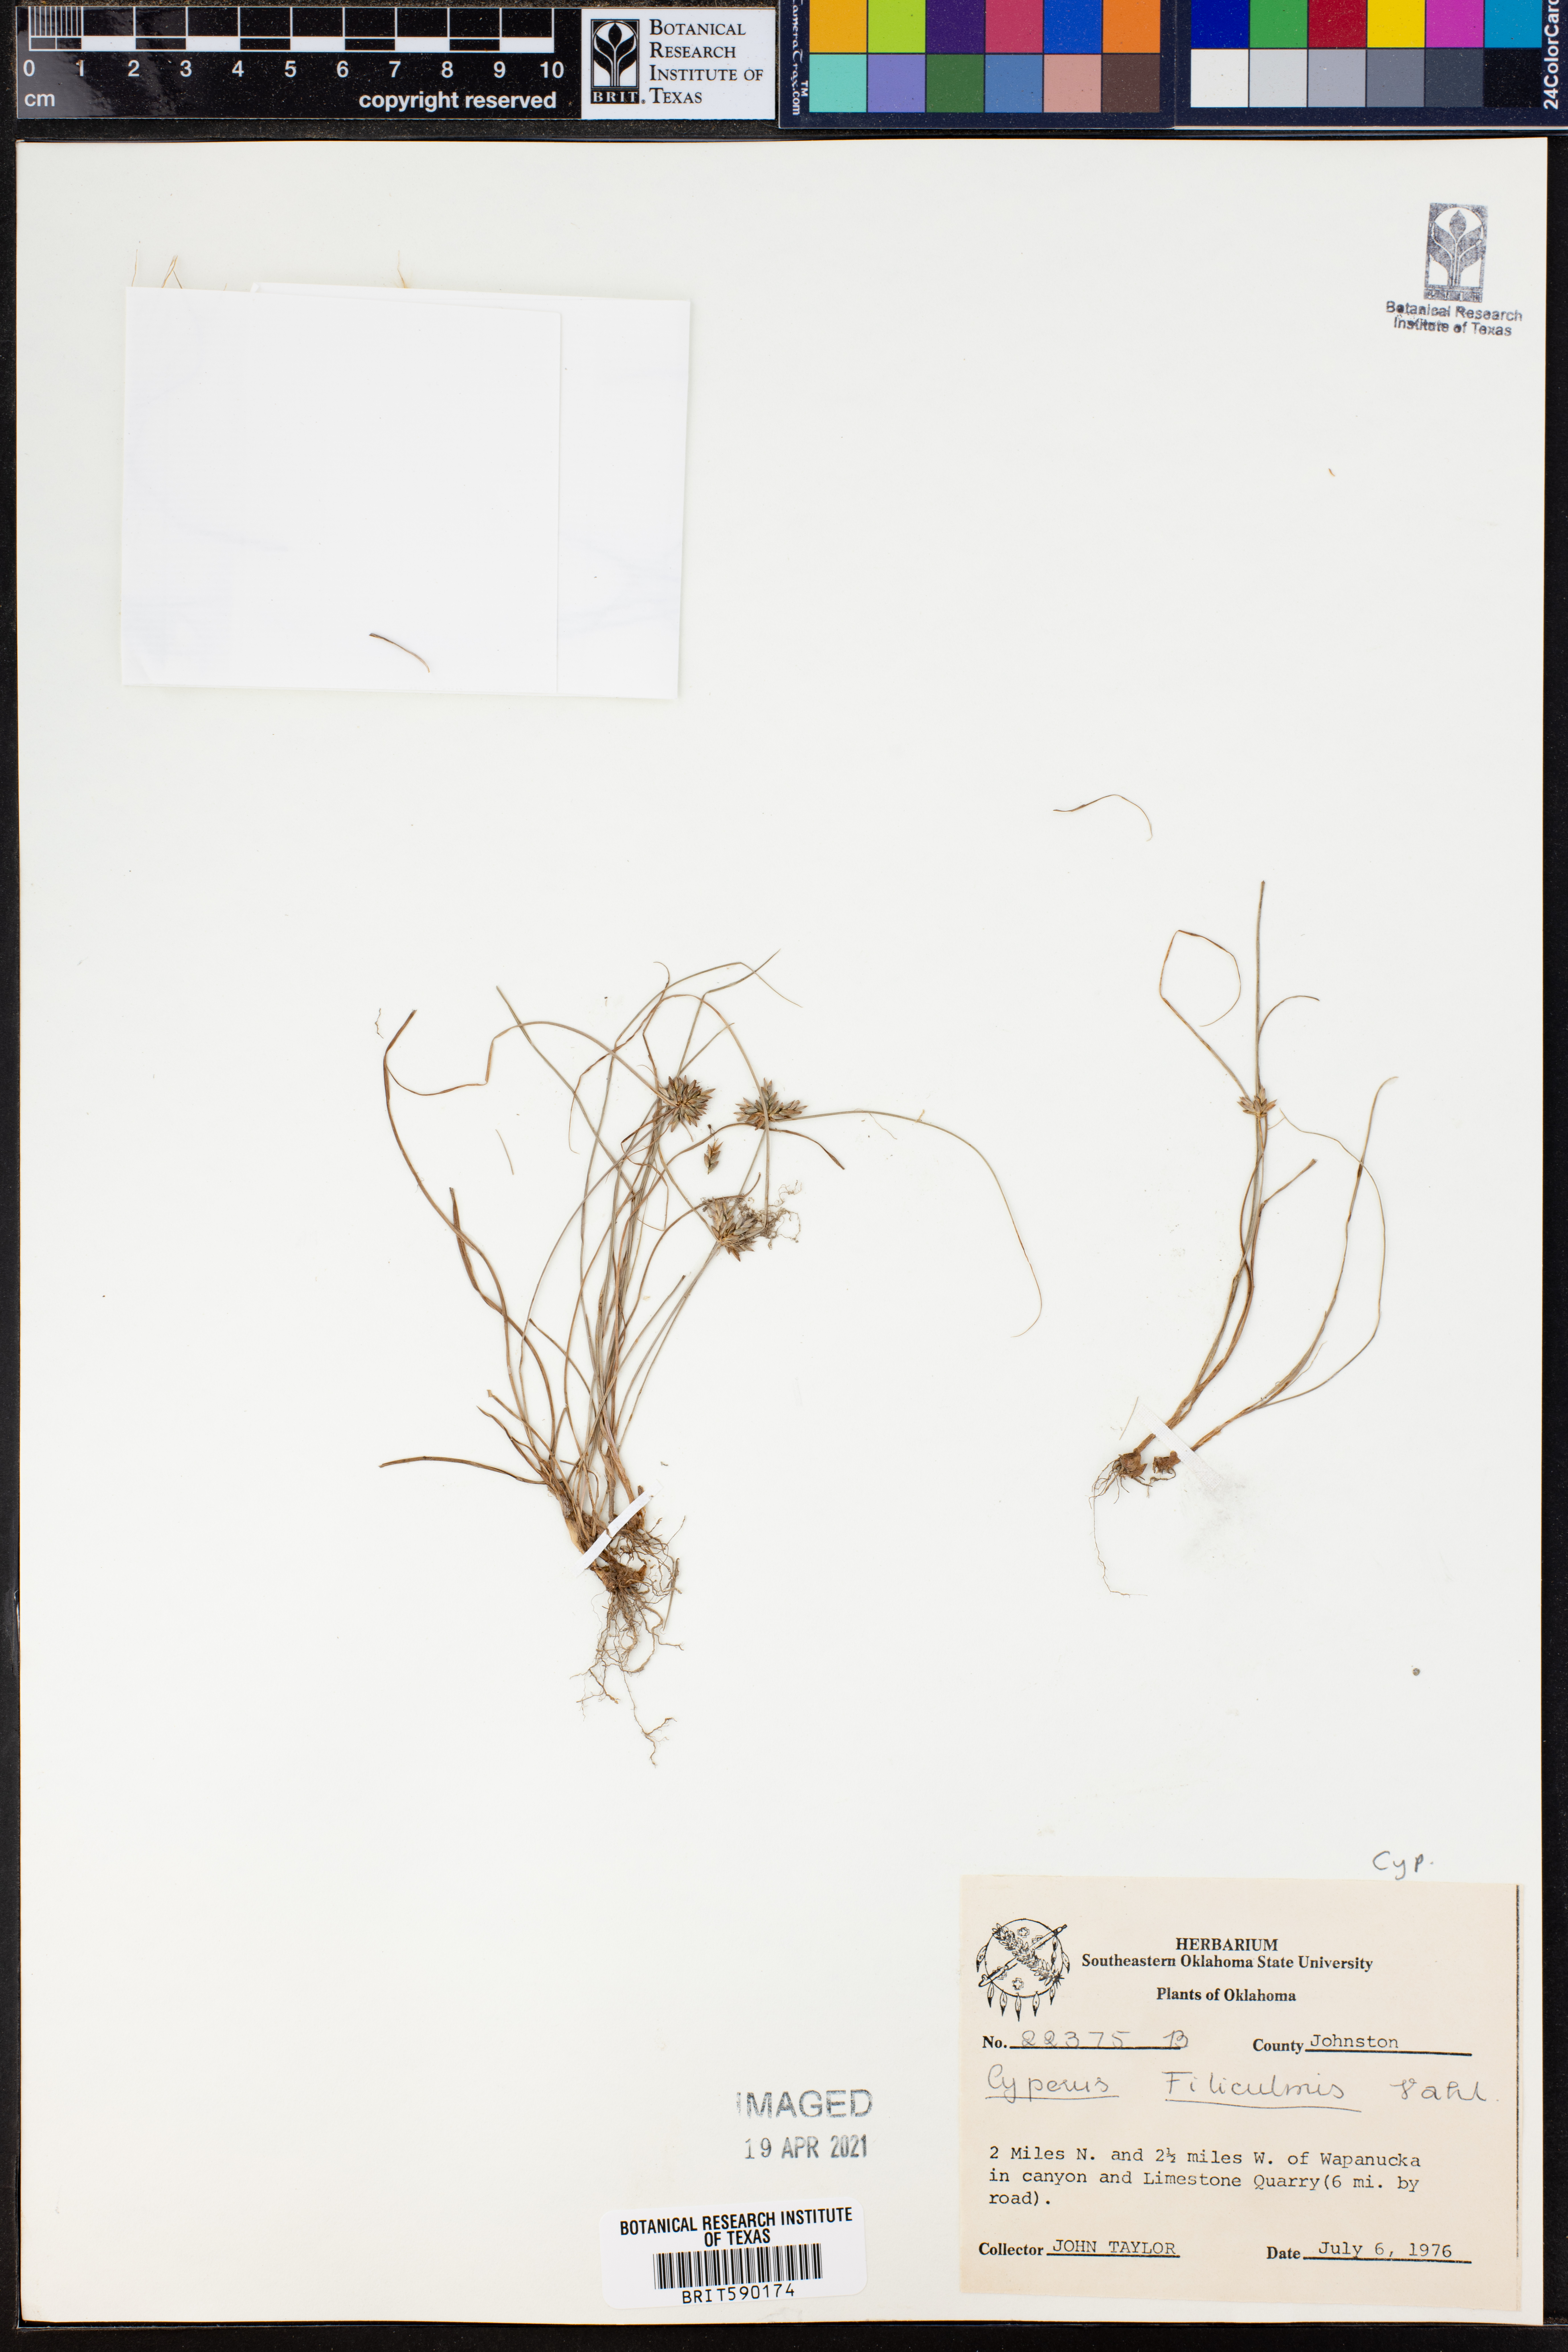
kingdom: Plantae
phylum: Tracheophyta
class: Liliopsida
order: Poales
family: Cyperaceae
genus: Cyperus
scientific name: Cyperus lanceolatus
